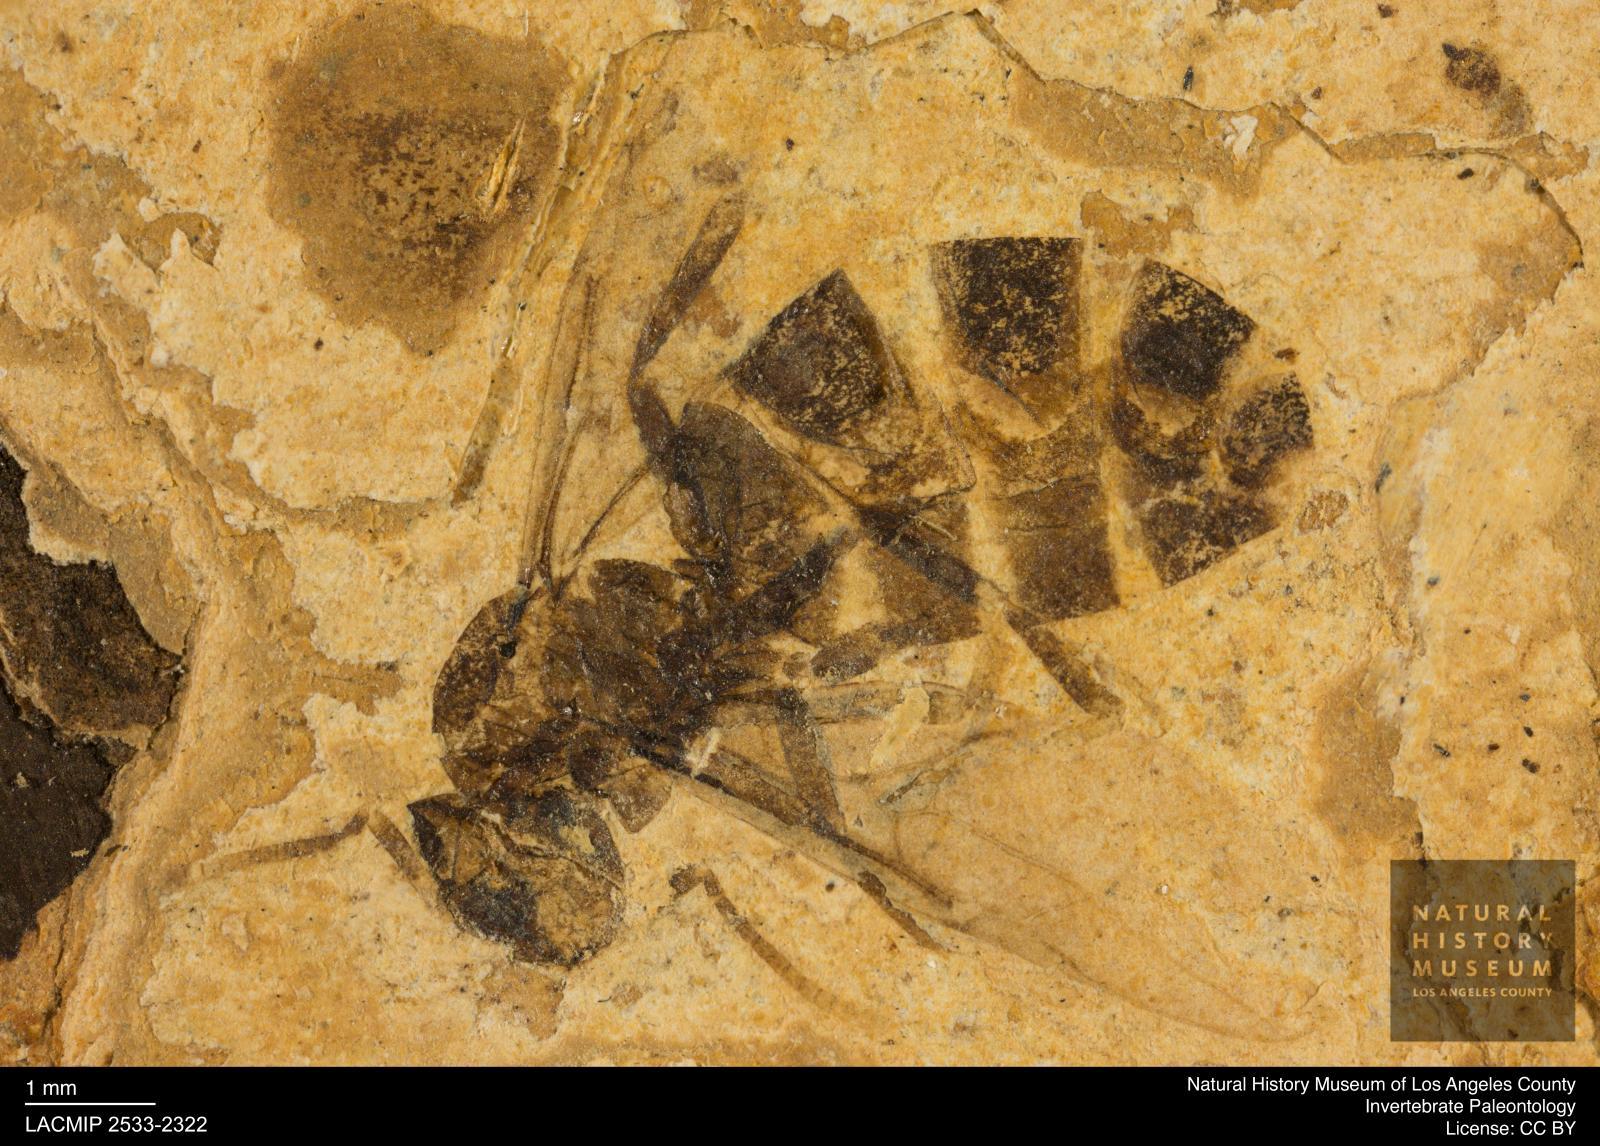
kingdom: Animalia
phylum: Arthropoda
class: Insecta
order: Hymenoptera
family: Formicidae
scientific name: Formicidae
